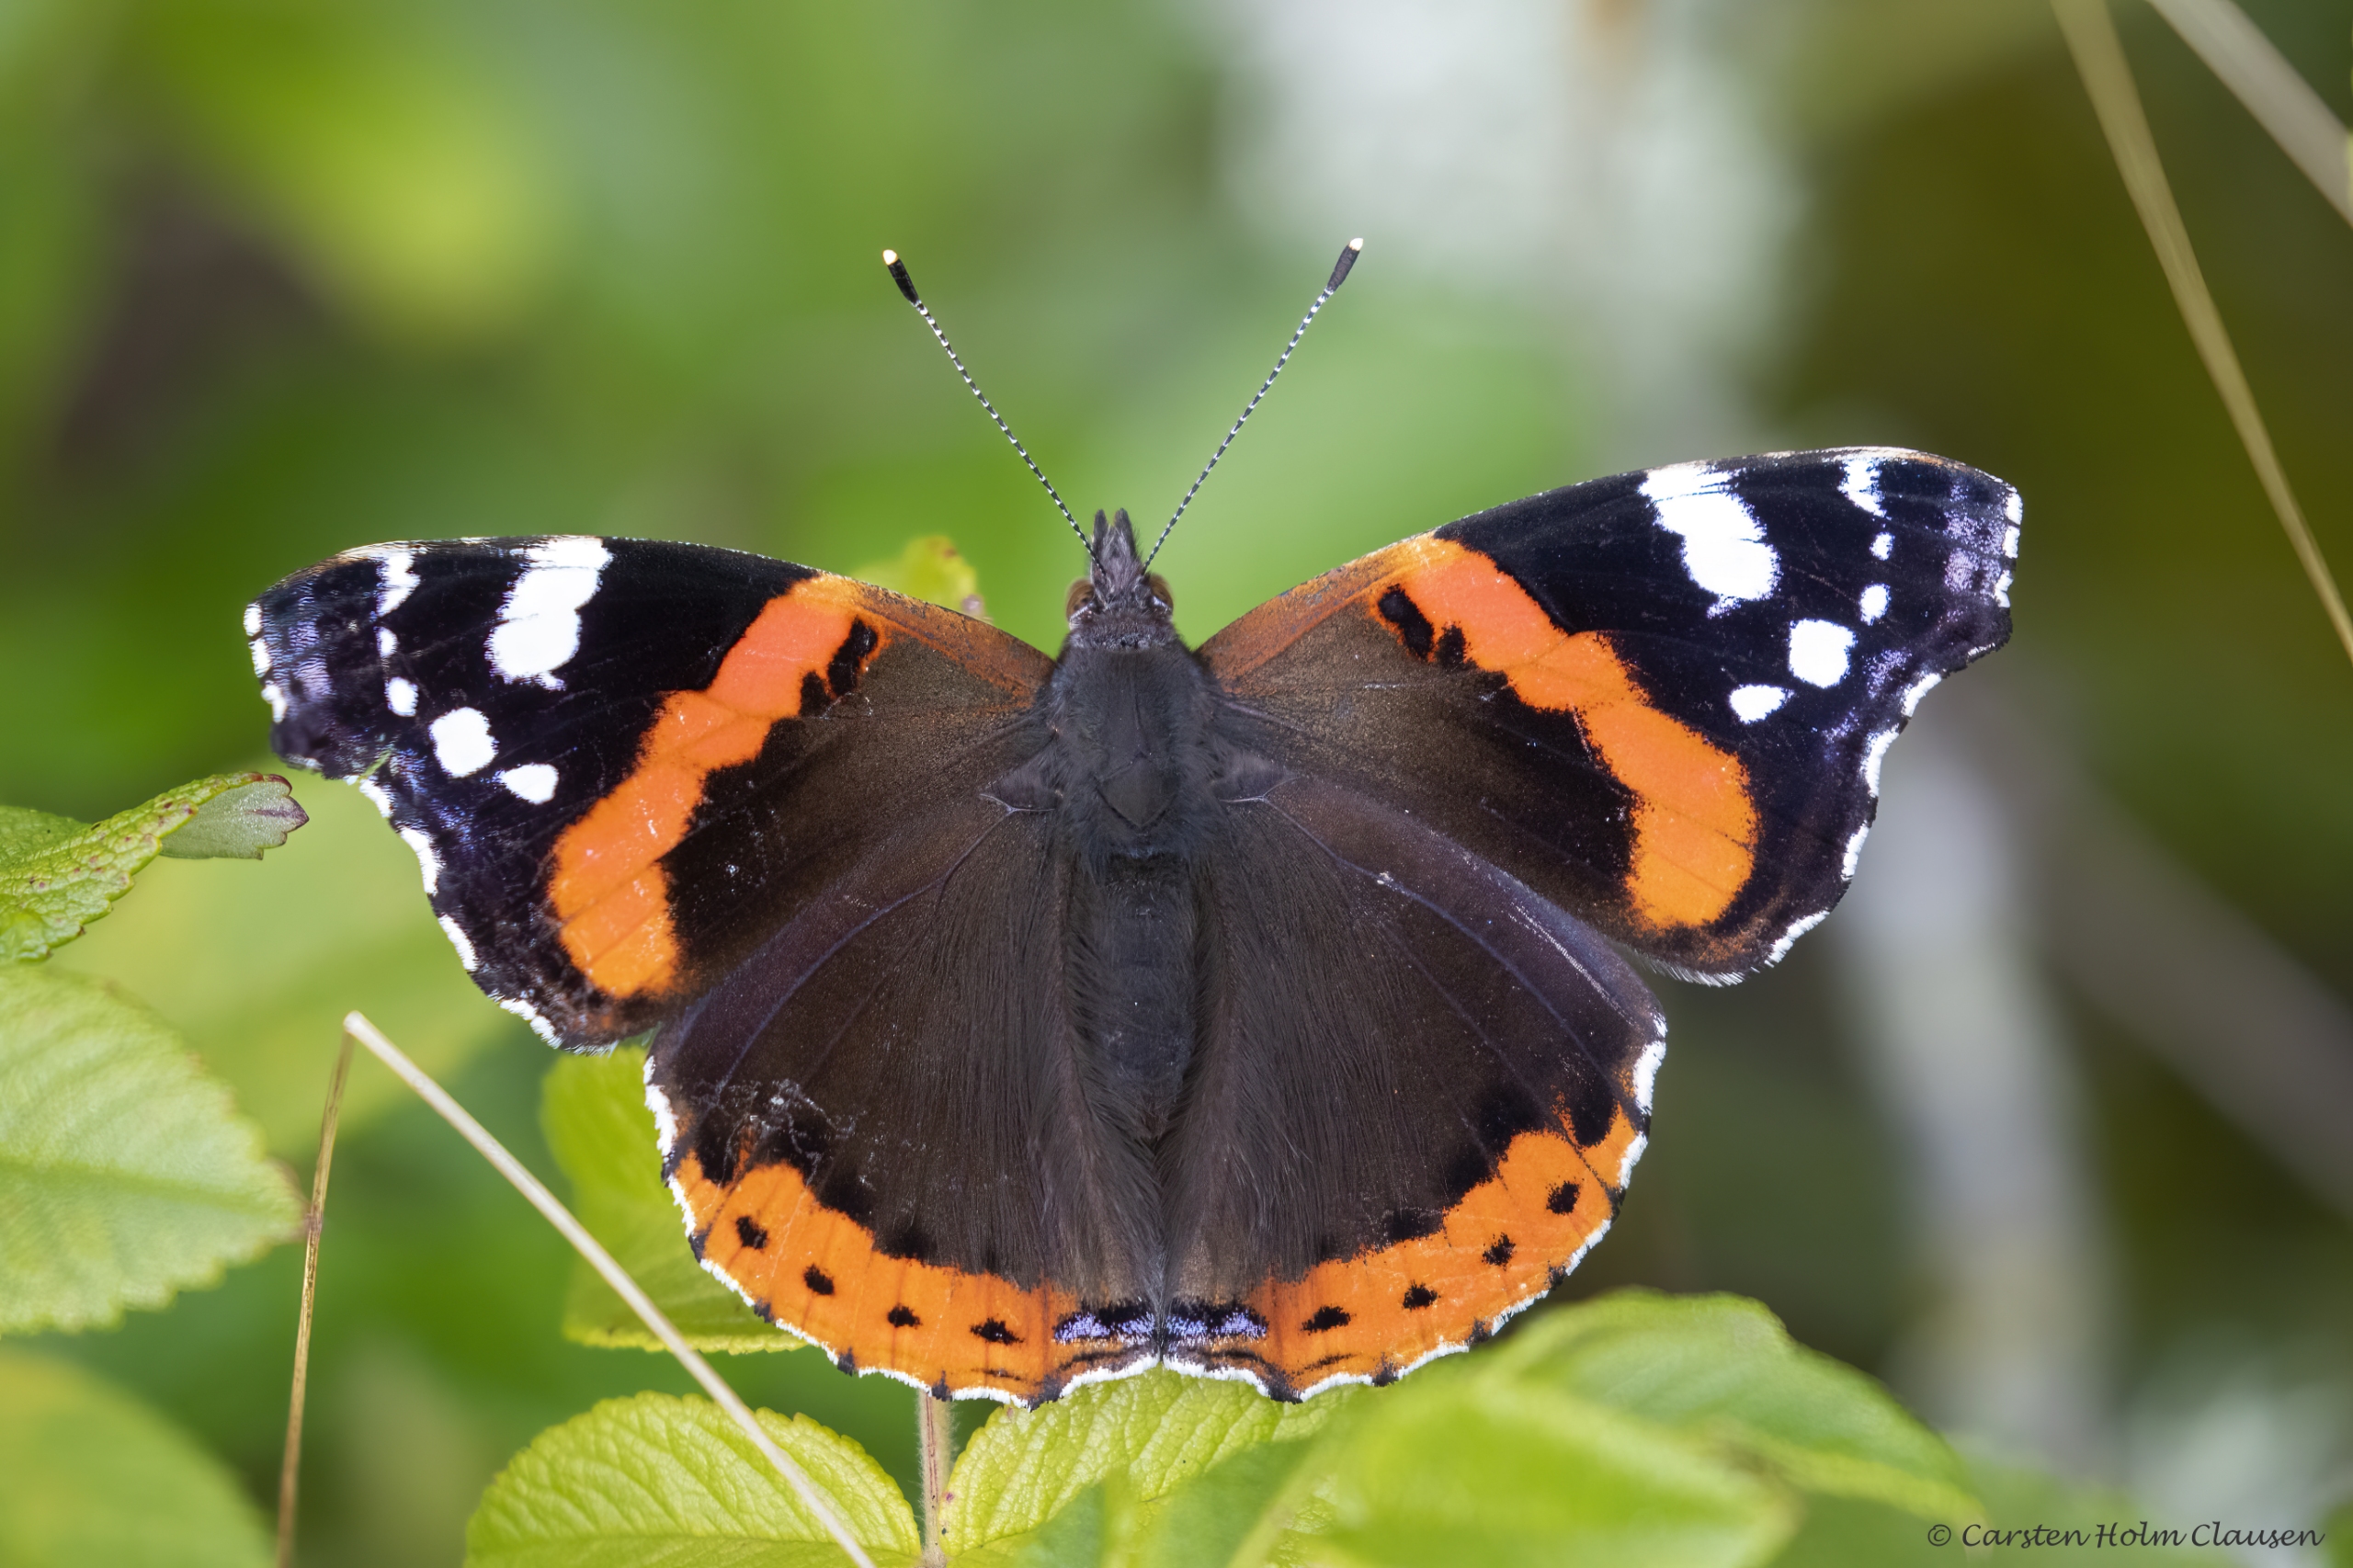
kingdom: Animalia
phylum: Arthropoda
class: Insecta
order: Lepidoptera
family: Nymphalidae
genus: Vanessa
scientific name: Vanessa atalanta
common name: Admiral
